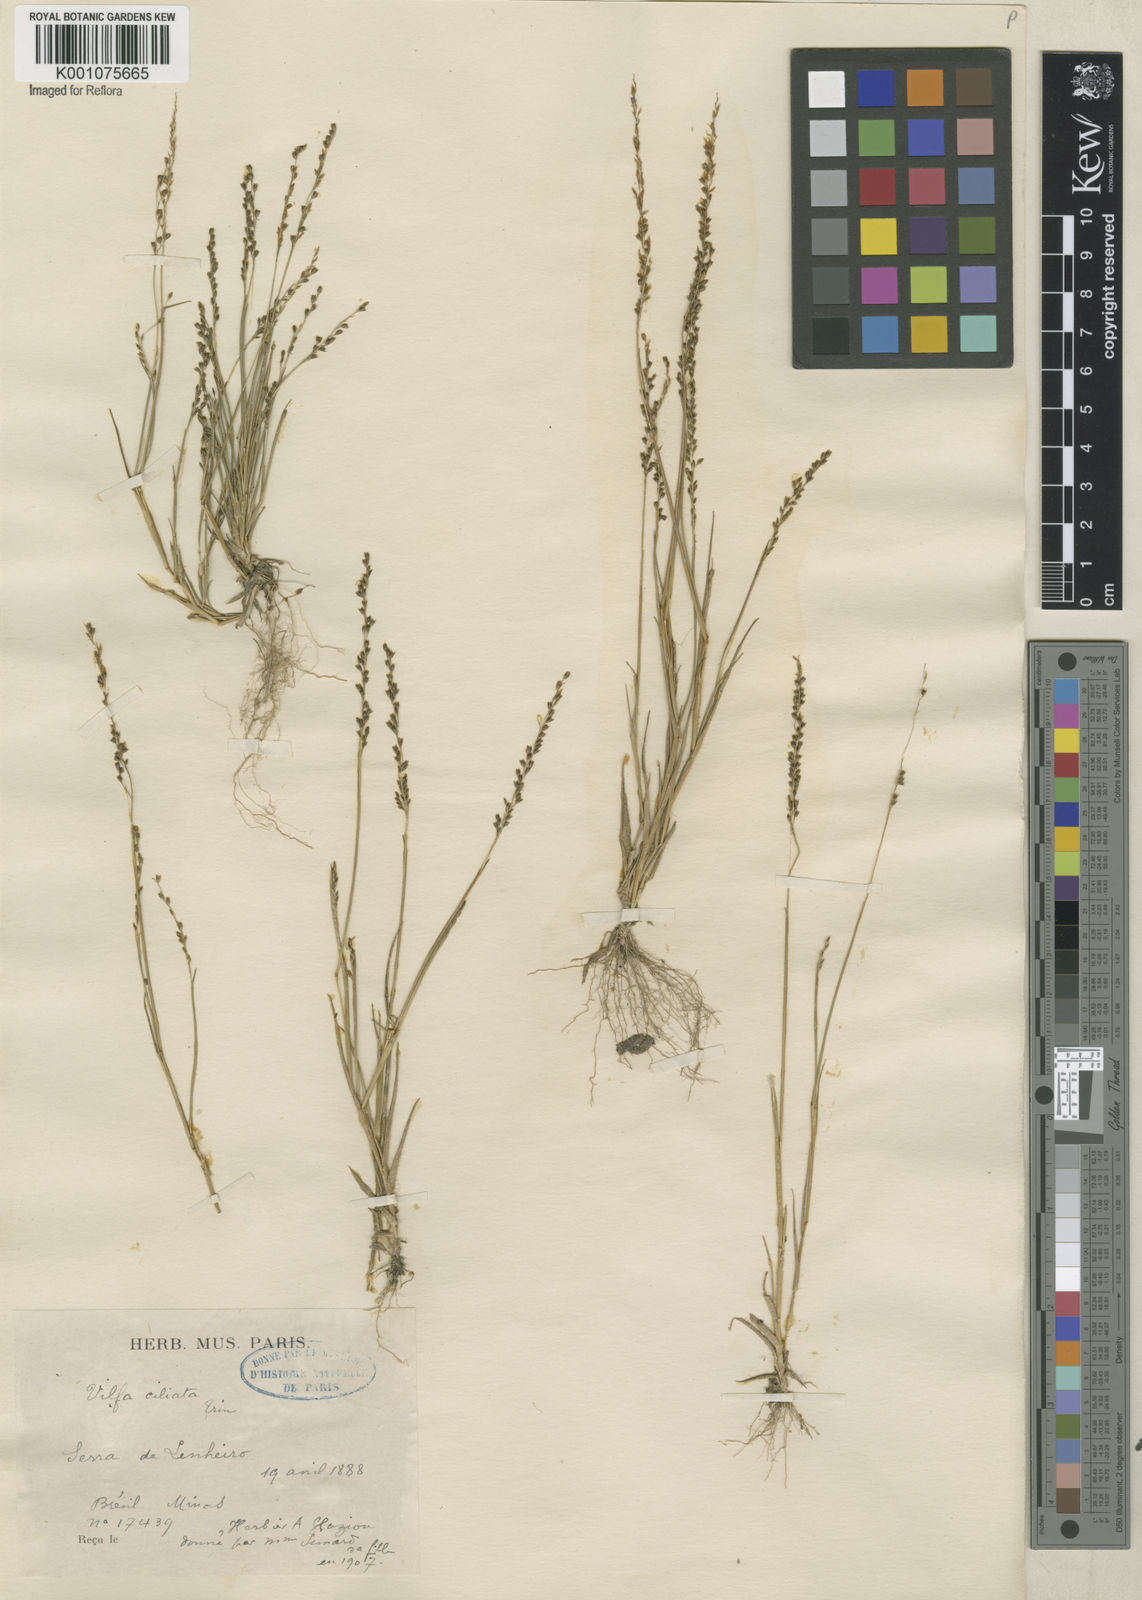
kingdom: Plantae
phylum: Tracheophyta
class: Liliopsida
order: Poales
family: Poaceae
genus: Sporobolus
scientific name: Sporobolus pilifer
